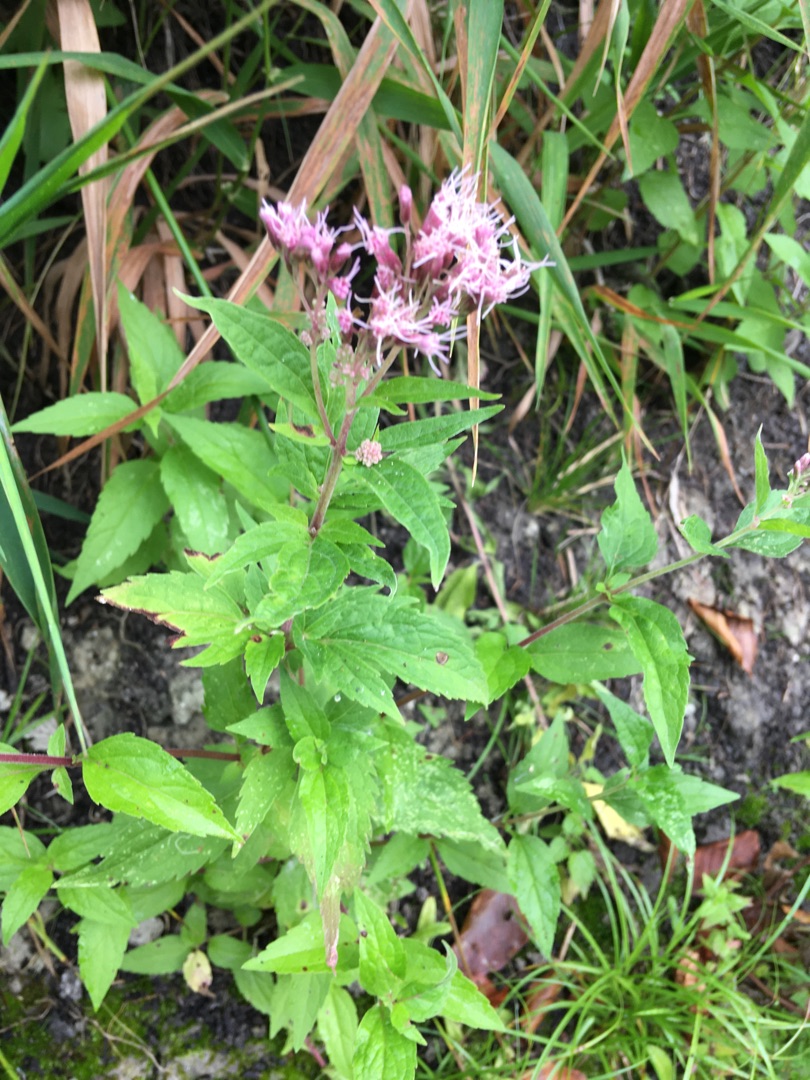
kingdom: Plantae
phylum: Tracheophyta
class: Magnoliopsida
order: Asterales
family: Asteraceae
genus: Eupatorium
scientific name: Eupatorium cannabinum
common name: Hjortetrøst
